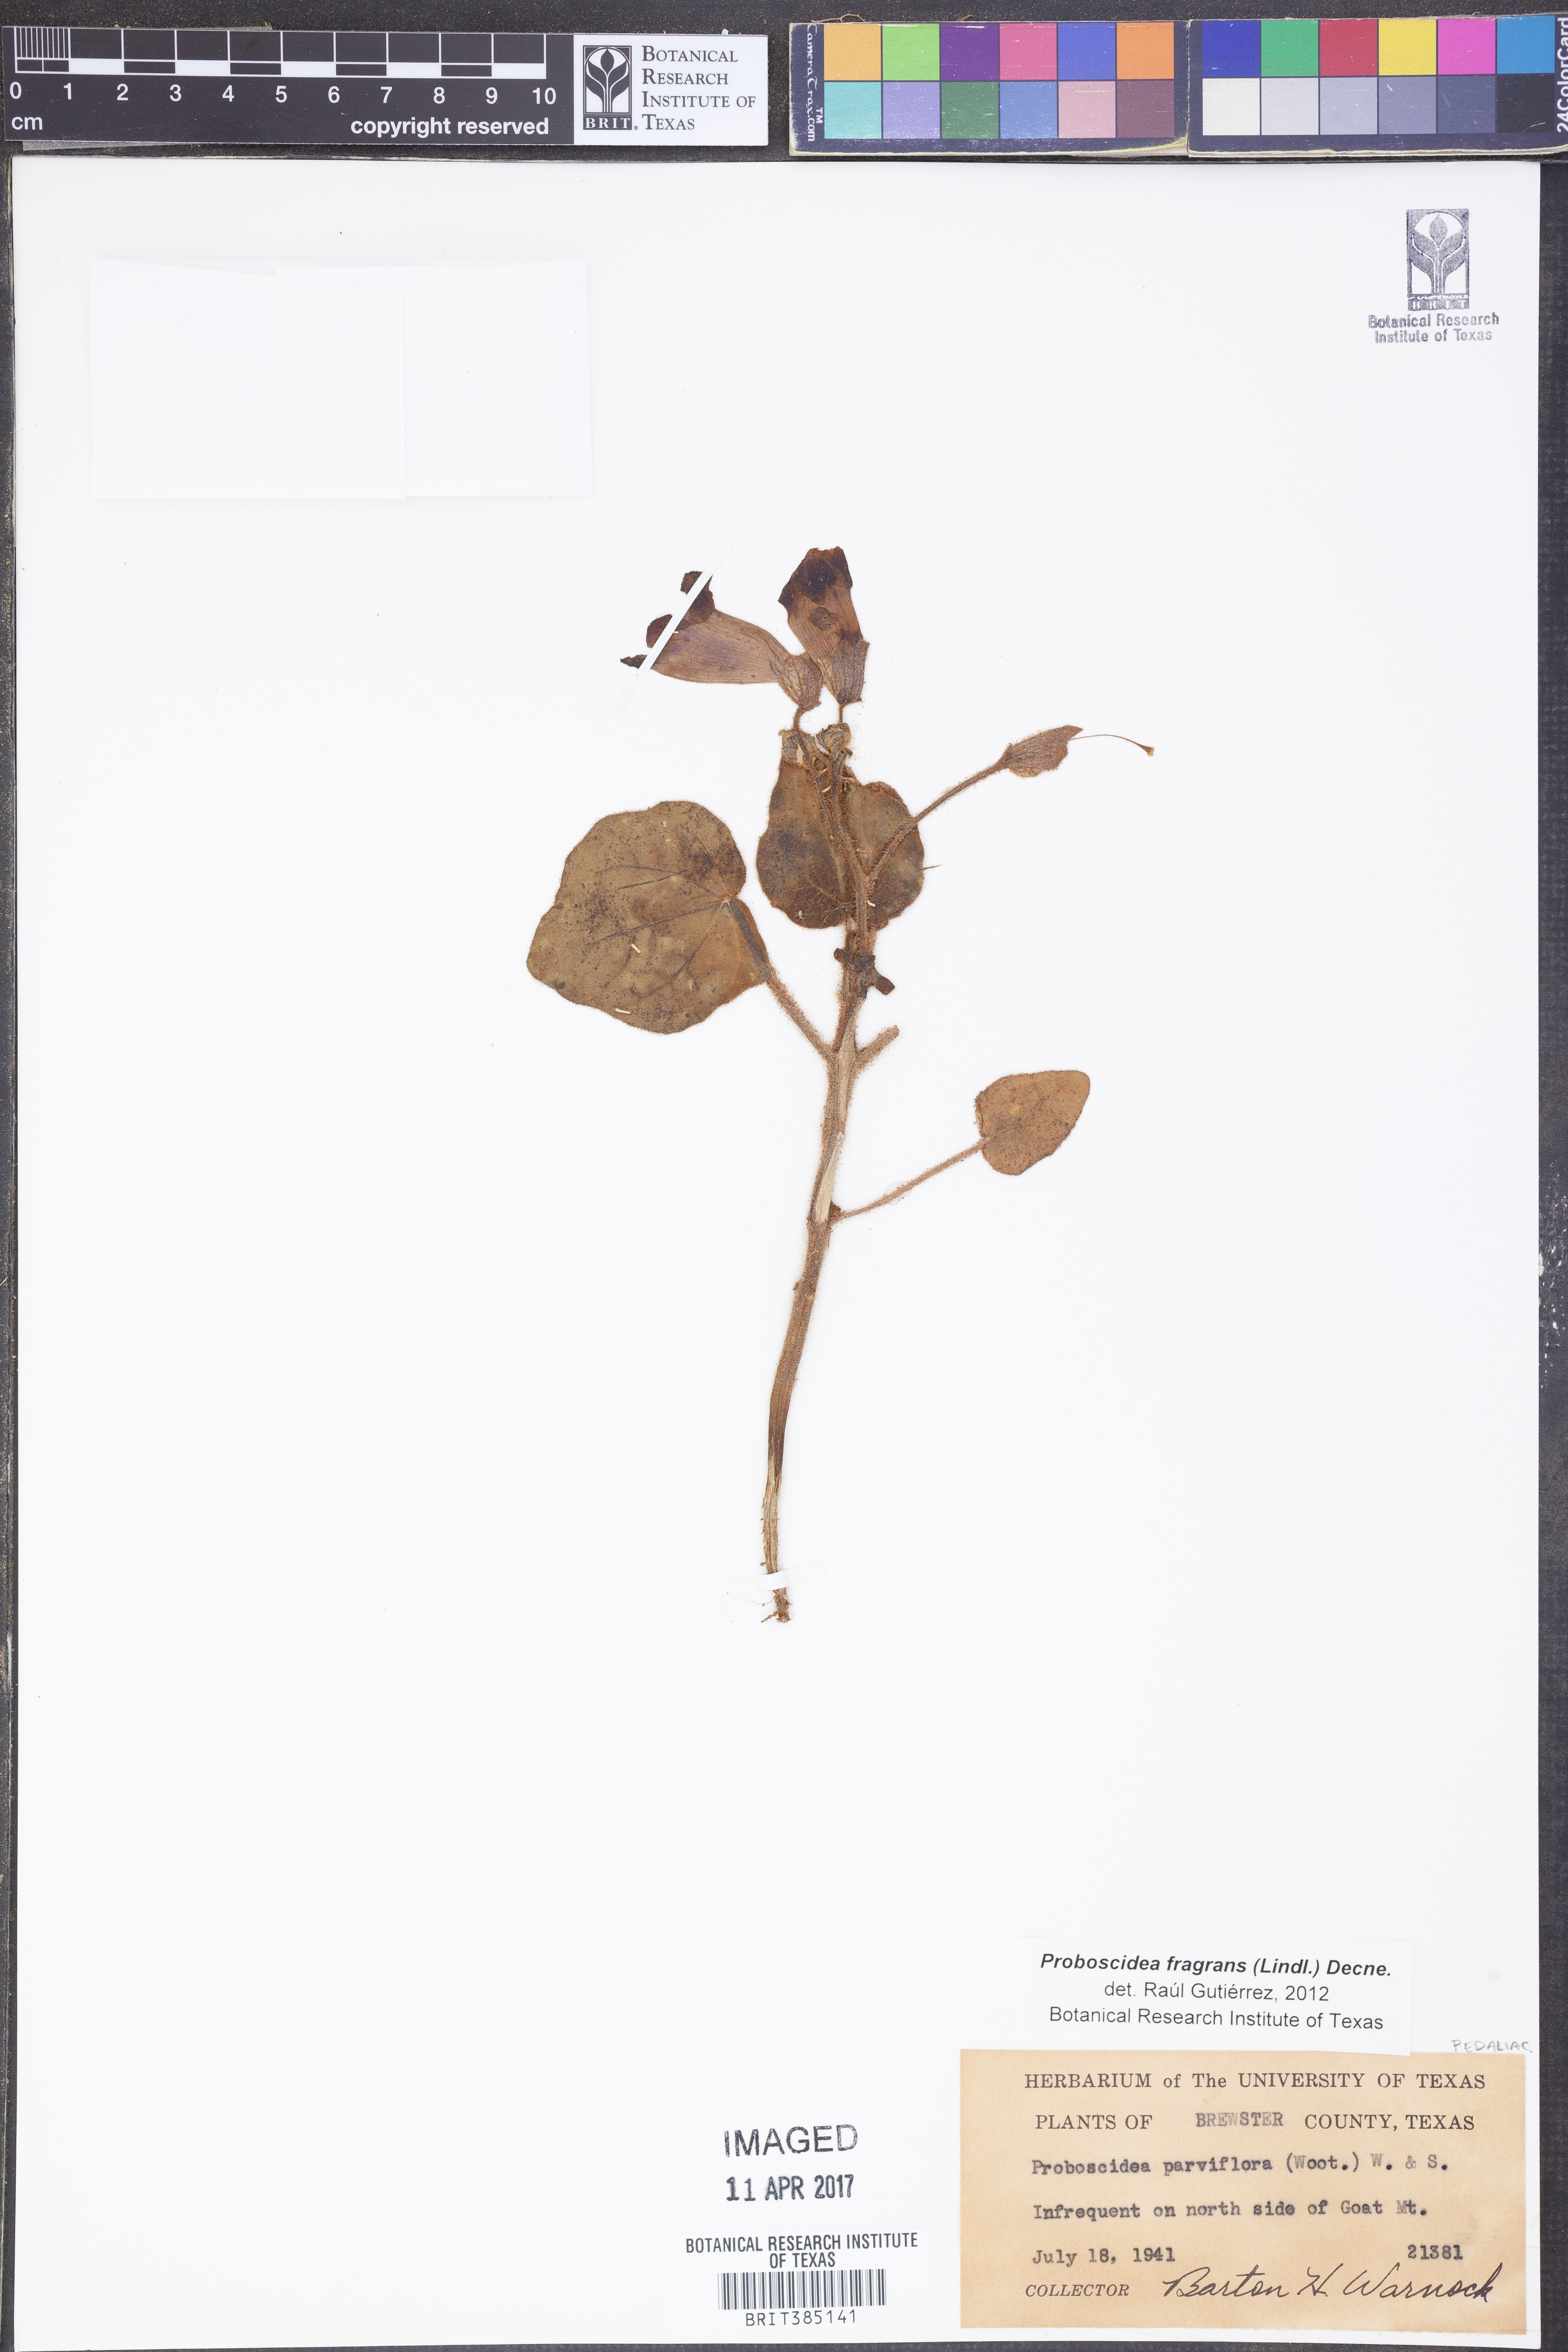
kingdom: Plantae
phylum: Tracheophyta
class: Magnoliopsida
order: Lamiales
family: Martyniaceae
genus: Proboscidea
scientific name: Proboscidea louisianica
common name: Elephant tusks
